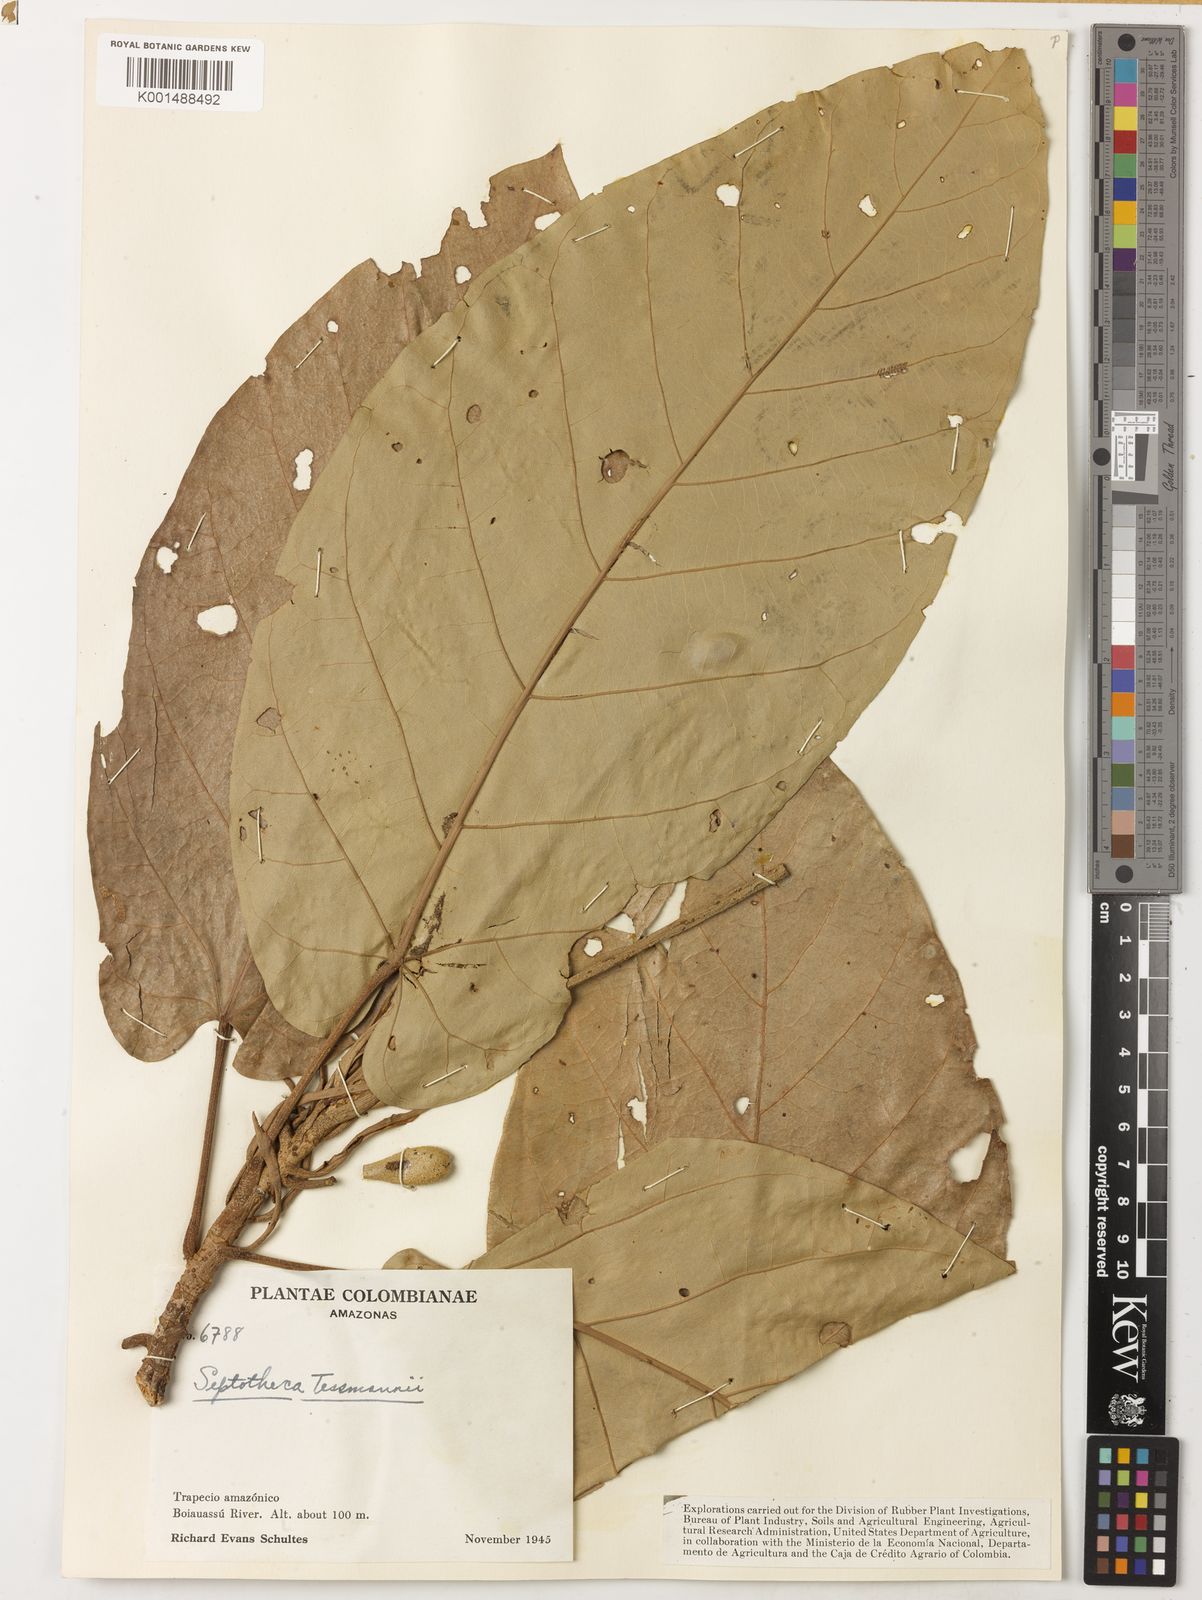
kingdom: Plantae
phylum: Tracheophyta
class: Magnoliopsida
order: Malvales
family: Malvaceae
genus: Septotheca
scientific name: Septotheca tessmannii
